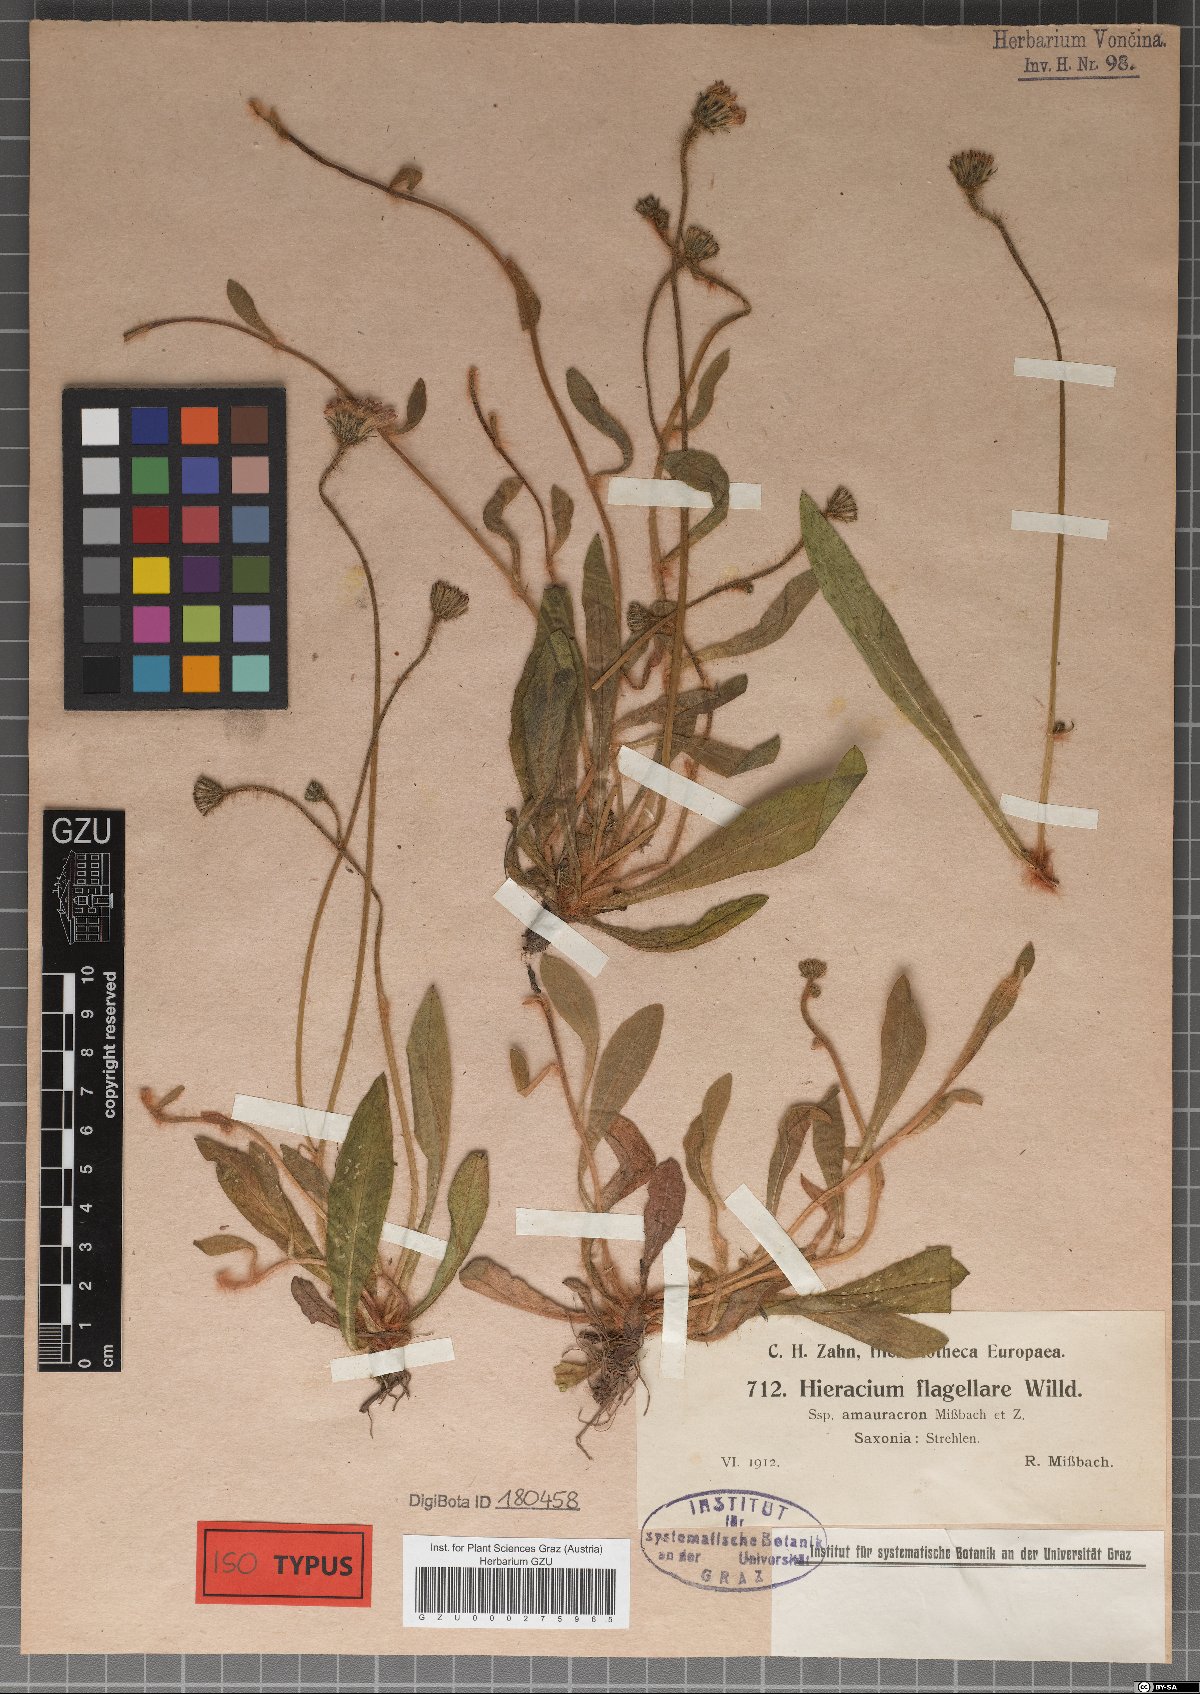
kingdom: Plantae
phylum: Tracheophyta
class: Magnoliopsida
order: Asterales
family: Asteraceae
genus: Pilosella
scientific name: Pilosella flagellaris
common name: Flagellate hawkweed
